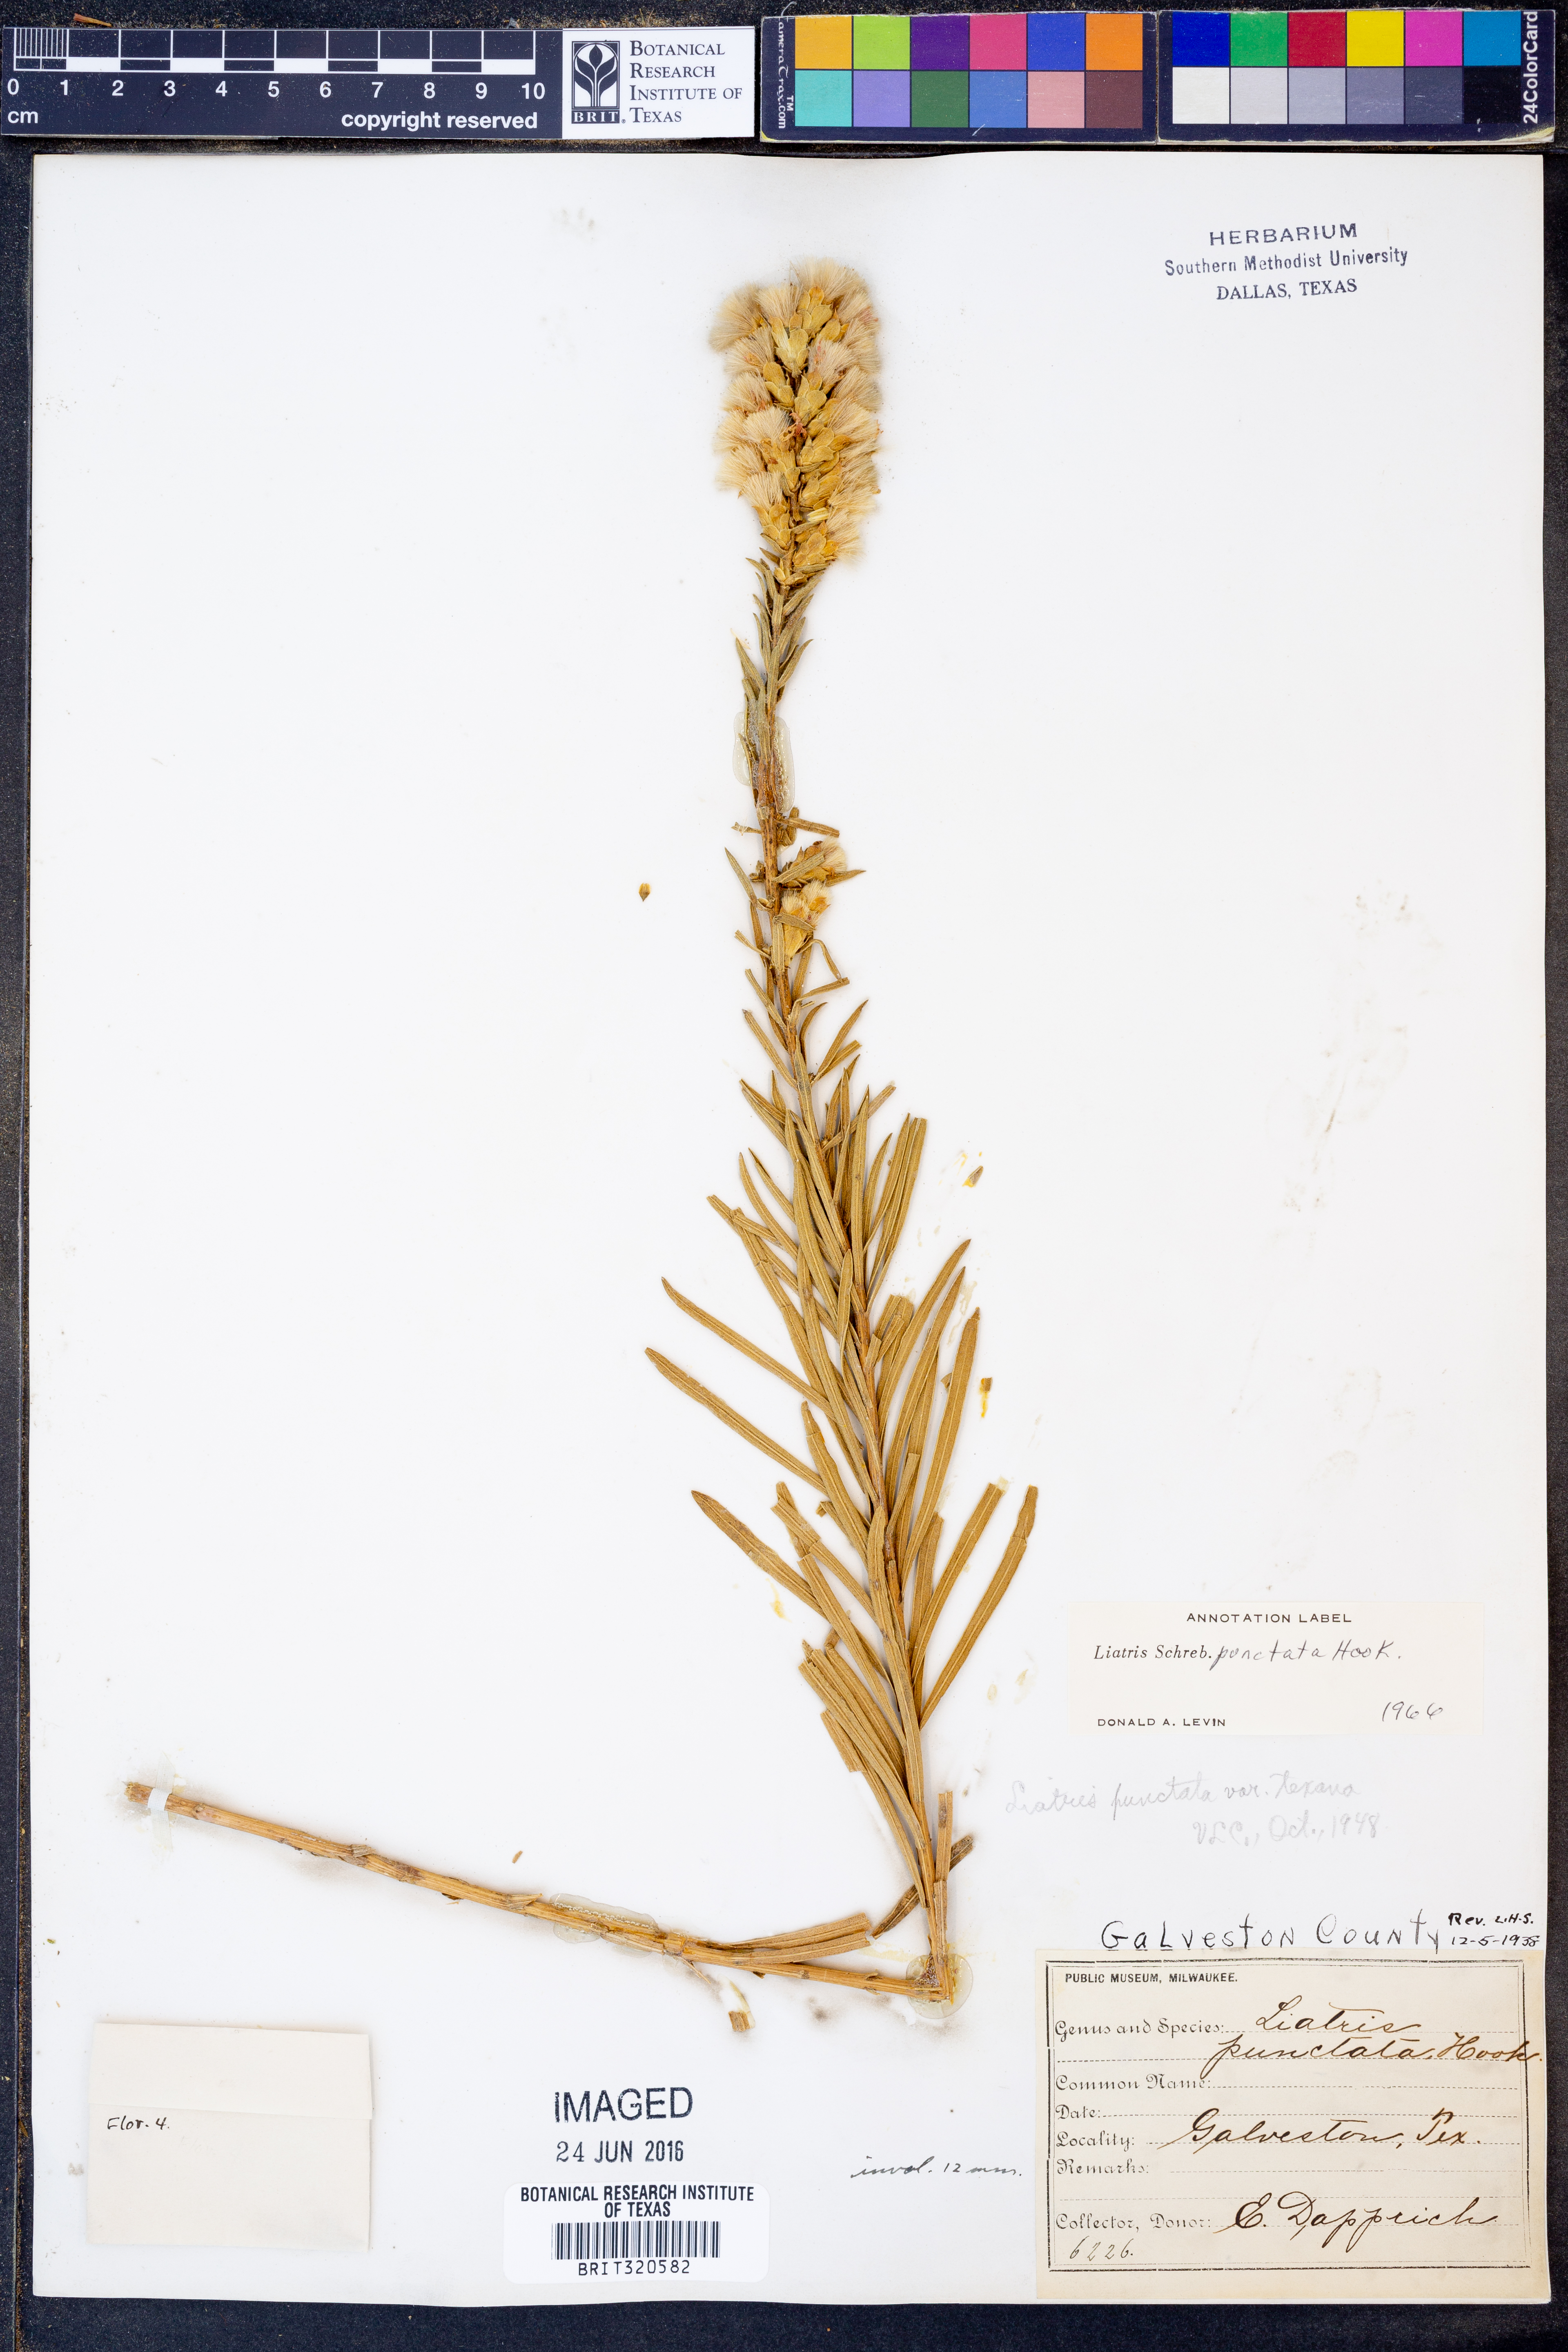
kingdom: Plantae
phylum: Tracheophyta
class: Magnoliopsida
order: Asterales
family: Asteraceae
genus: Liatris
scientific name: Liatris punctata
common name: Dotted gayfeather
